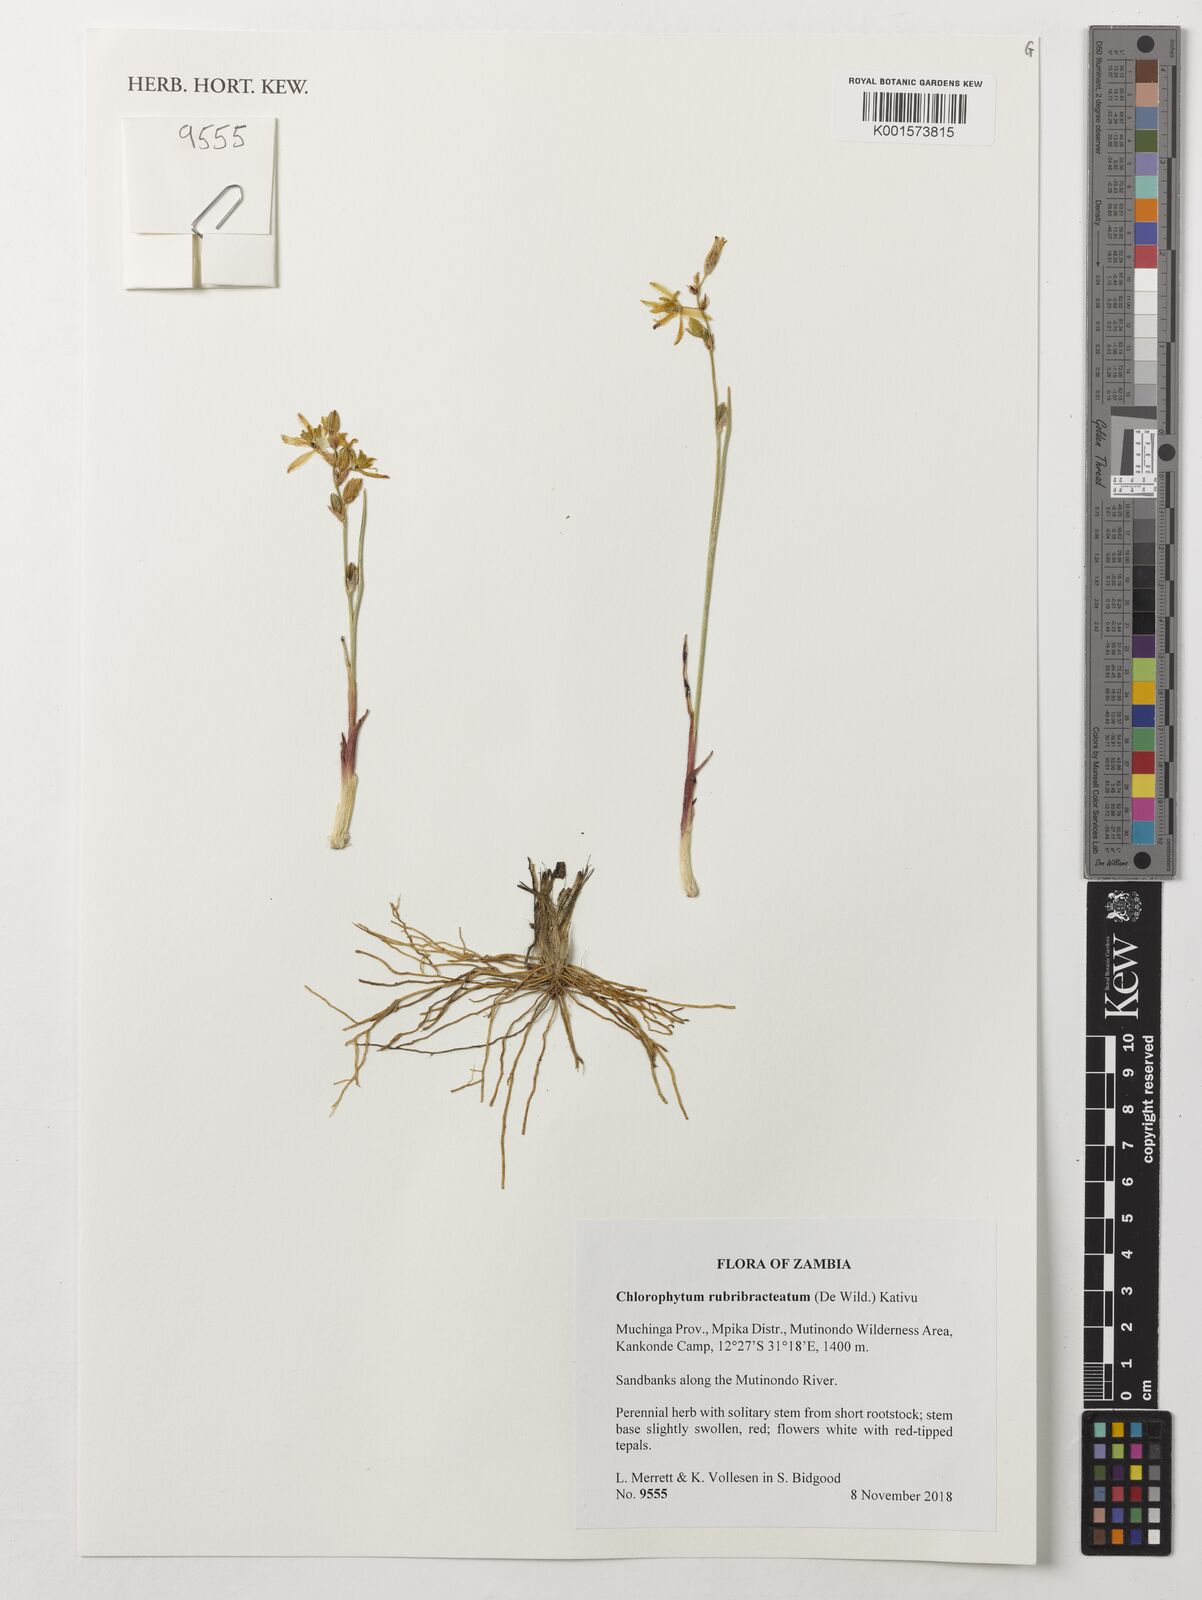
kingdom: Plantae
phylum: Tracheophyta
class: Liliopsida
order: Asparagales
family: Asparagaceae
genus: Chlorophytum
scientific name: Chlorophytum rubribracteatum
